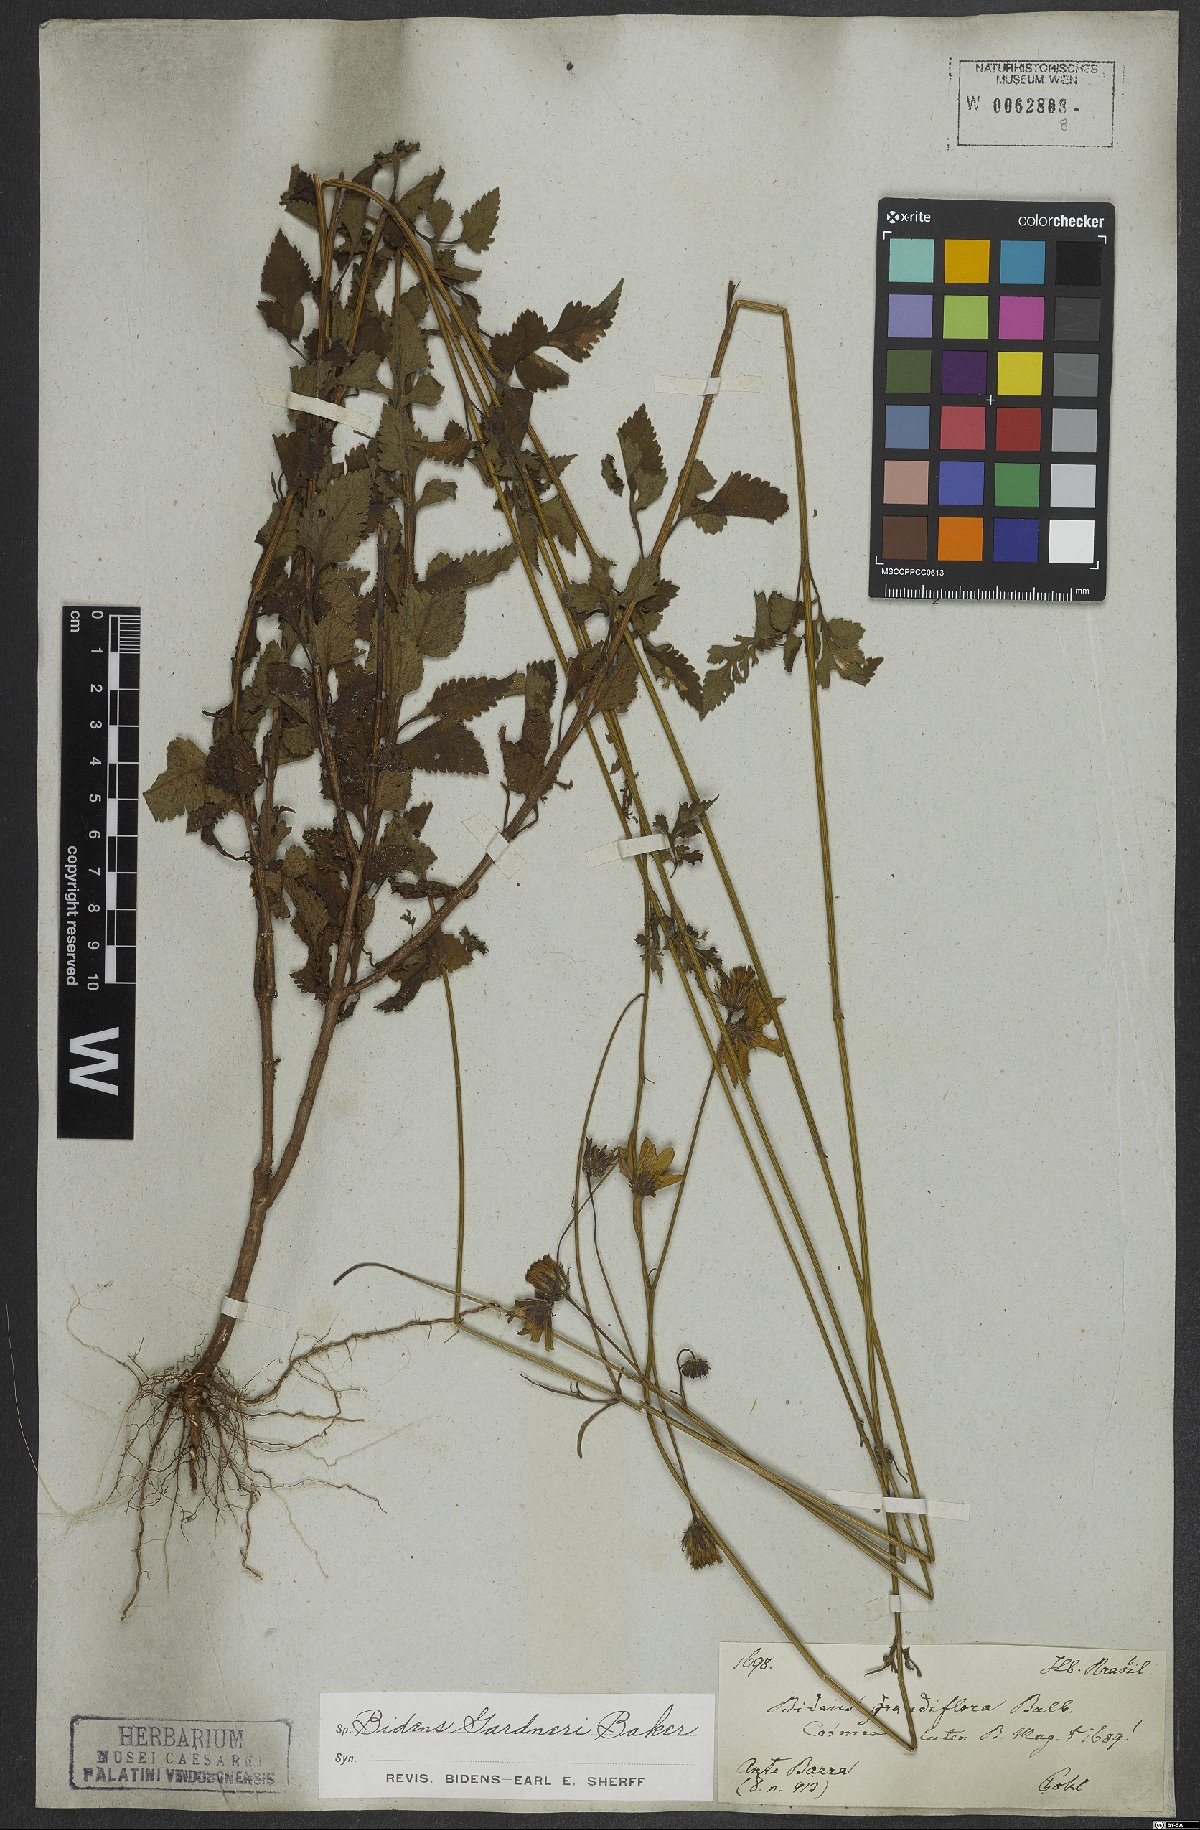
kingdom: Plantae
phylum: Tracheophyta
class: Magnoliopsida
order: Asterales
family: Asteraceae
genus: Bidens
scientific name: Bidens gardneri
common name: Ridge beggartick
